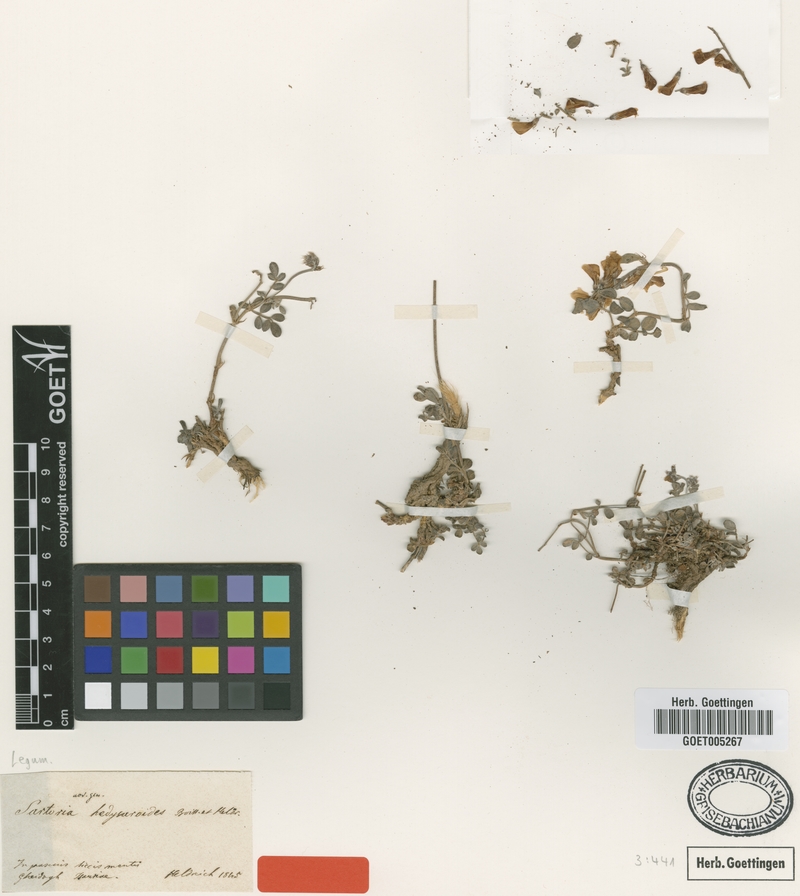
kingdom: Plantae
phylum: Tracheophyta
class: Magnoliopsida
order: Fabales
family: Fabaceae
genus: Hedysarum
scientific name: Hedysarum anatolicum
